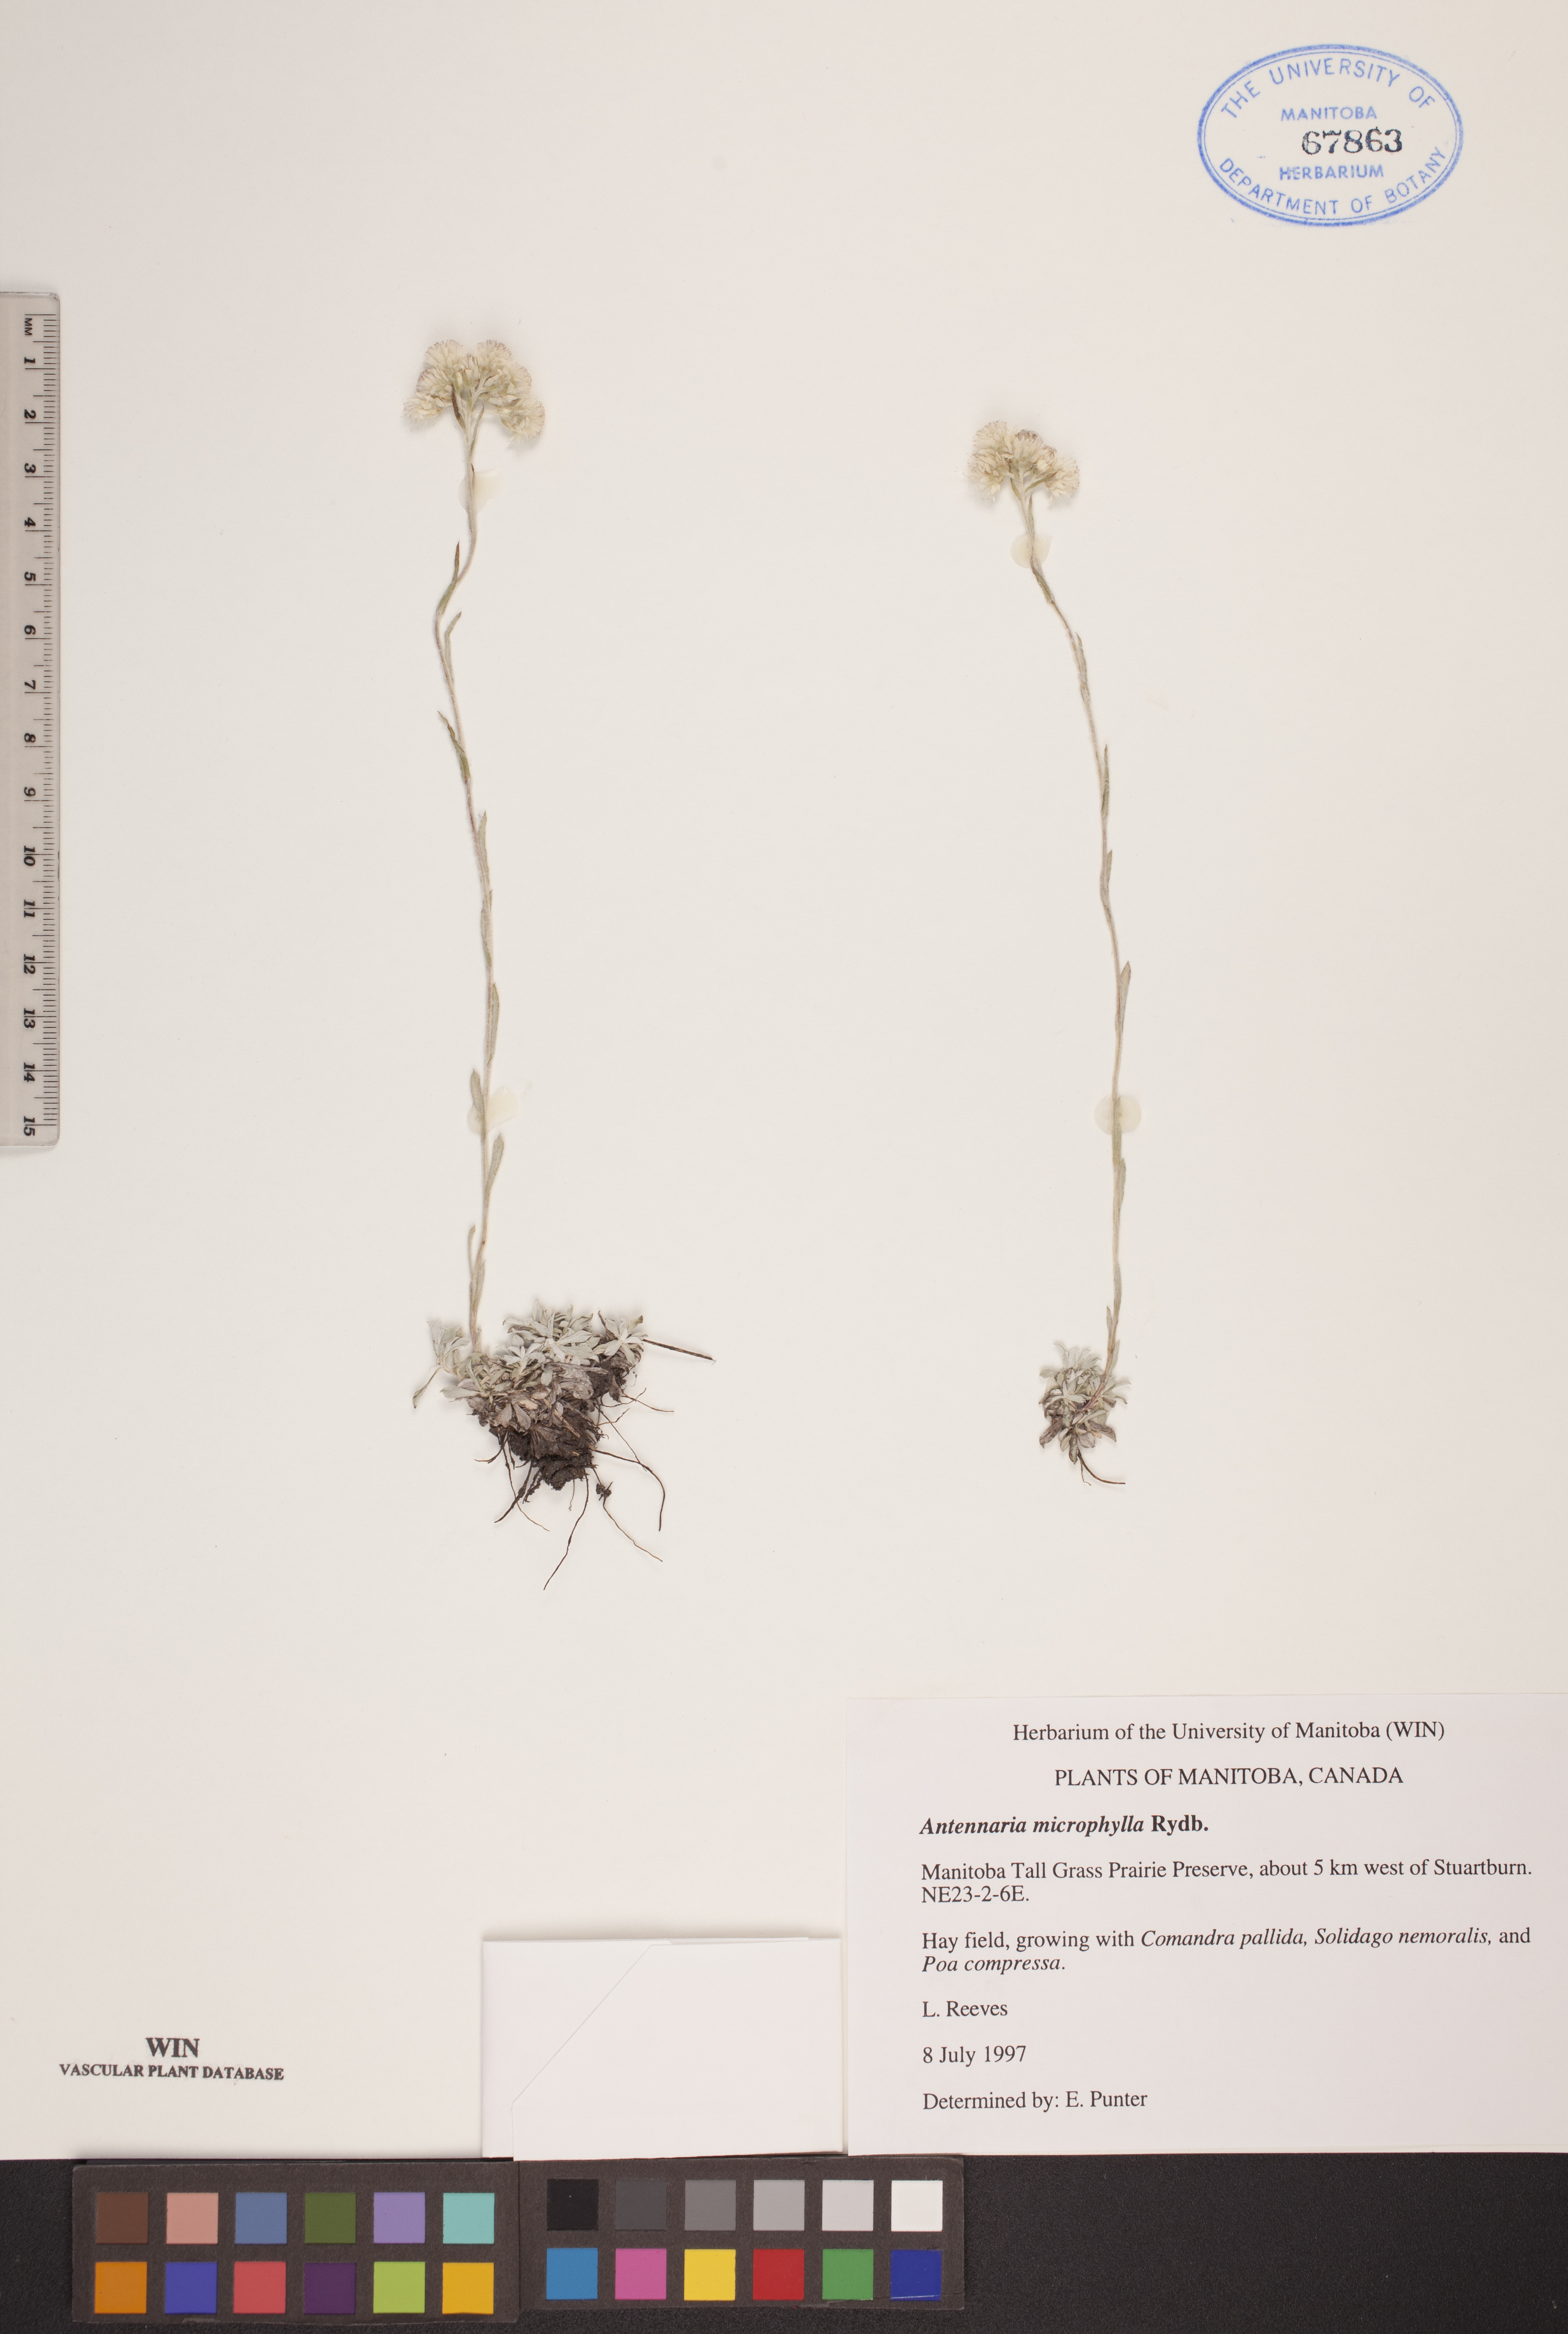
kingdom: Plantae
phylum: Tracheophyta
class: Magnoliopsida
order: Asterales
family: Asteraceae
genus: Antennaria
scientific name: Antennaria microphylla
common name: Littleleaf pussytoes
